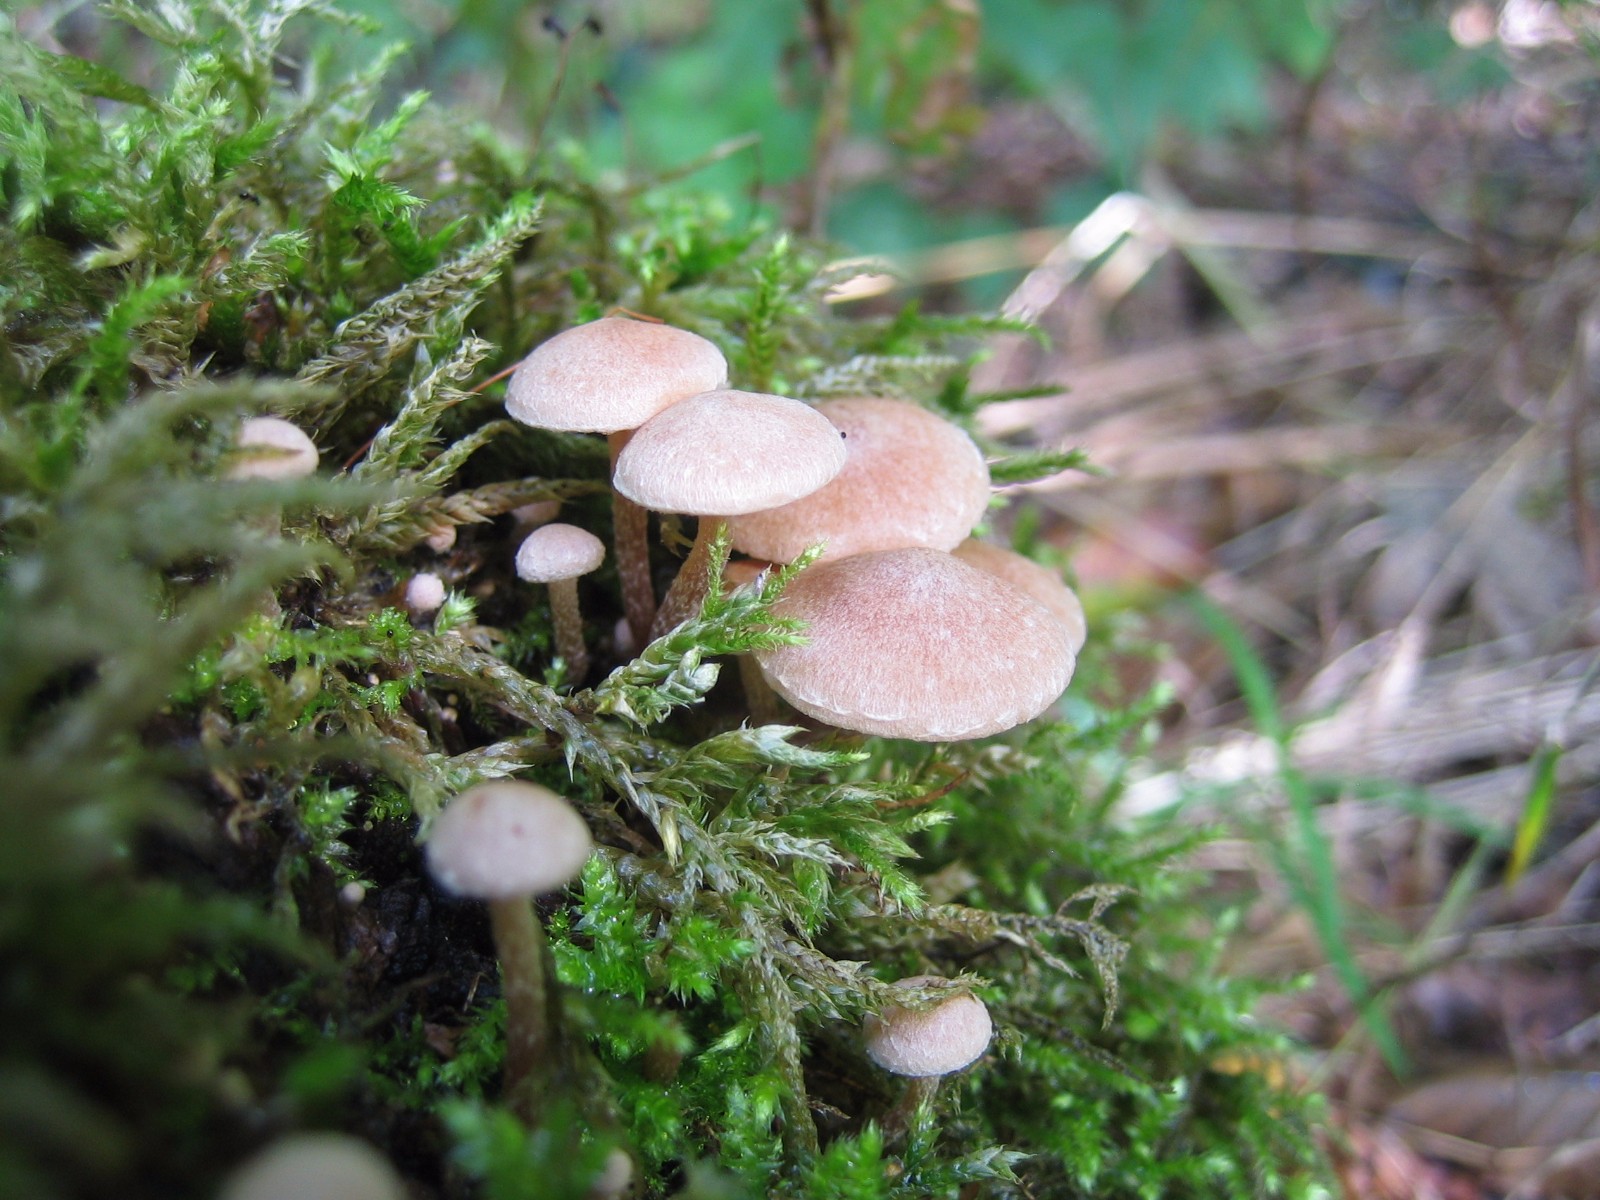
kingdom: Fungi
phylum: Basidiomycota
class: Agaricomycetes
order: Agaricales
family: Tubariaceae
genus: Tubaria
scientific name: Tubaria conspersa
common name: bleg fnughat
